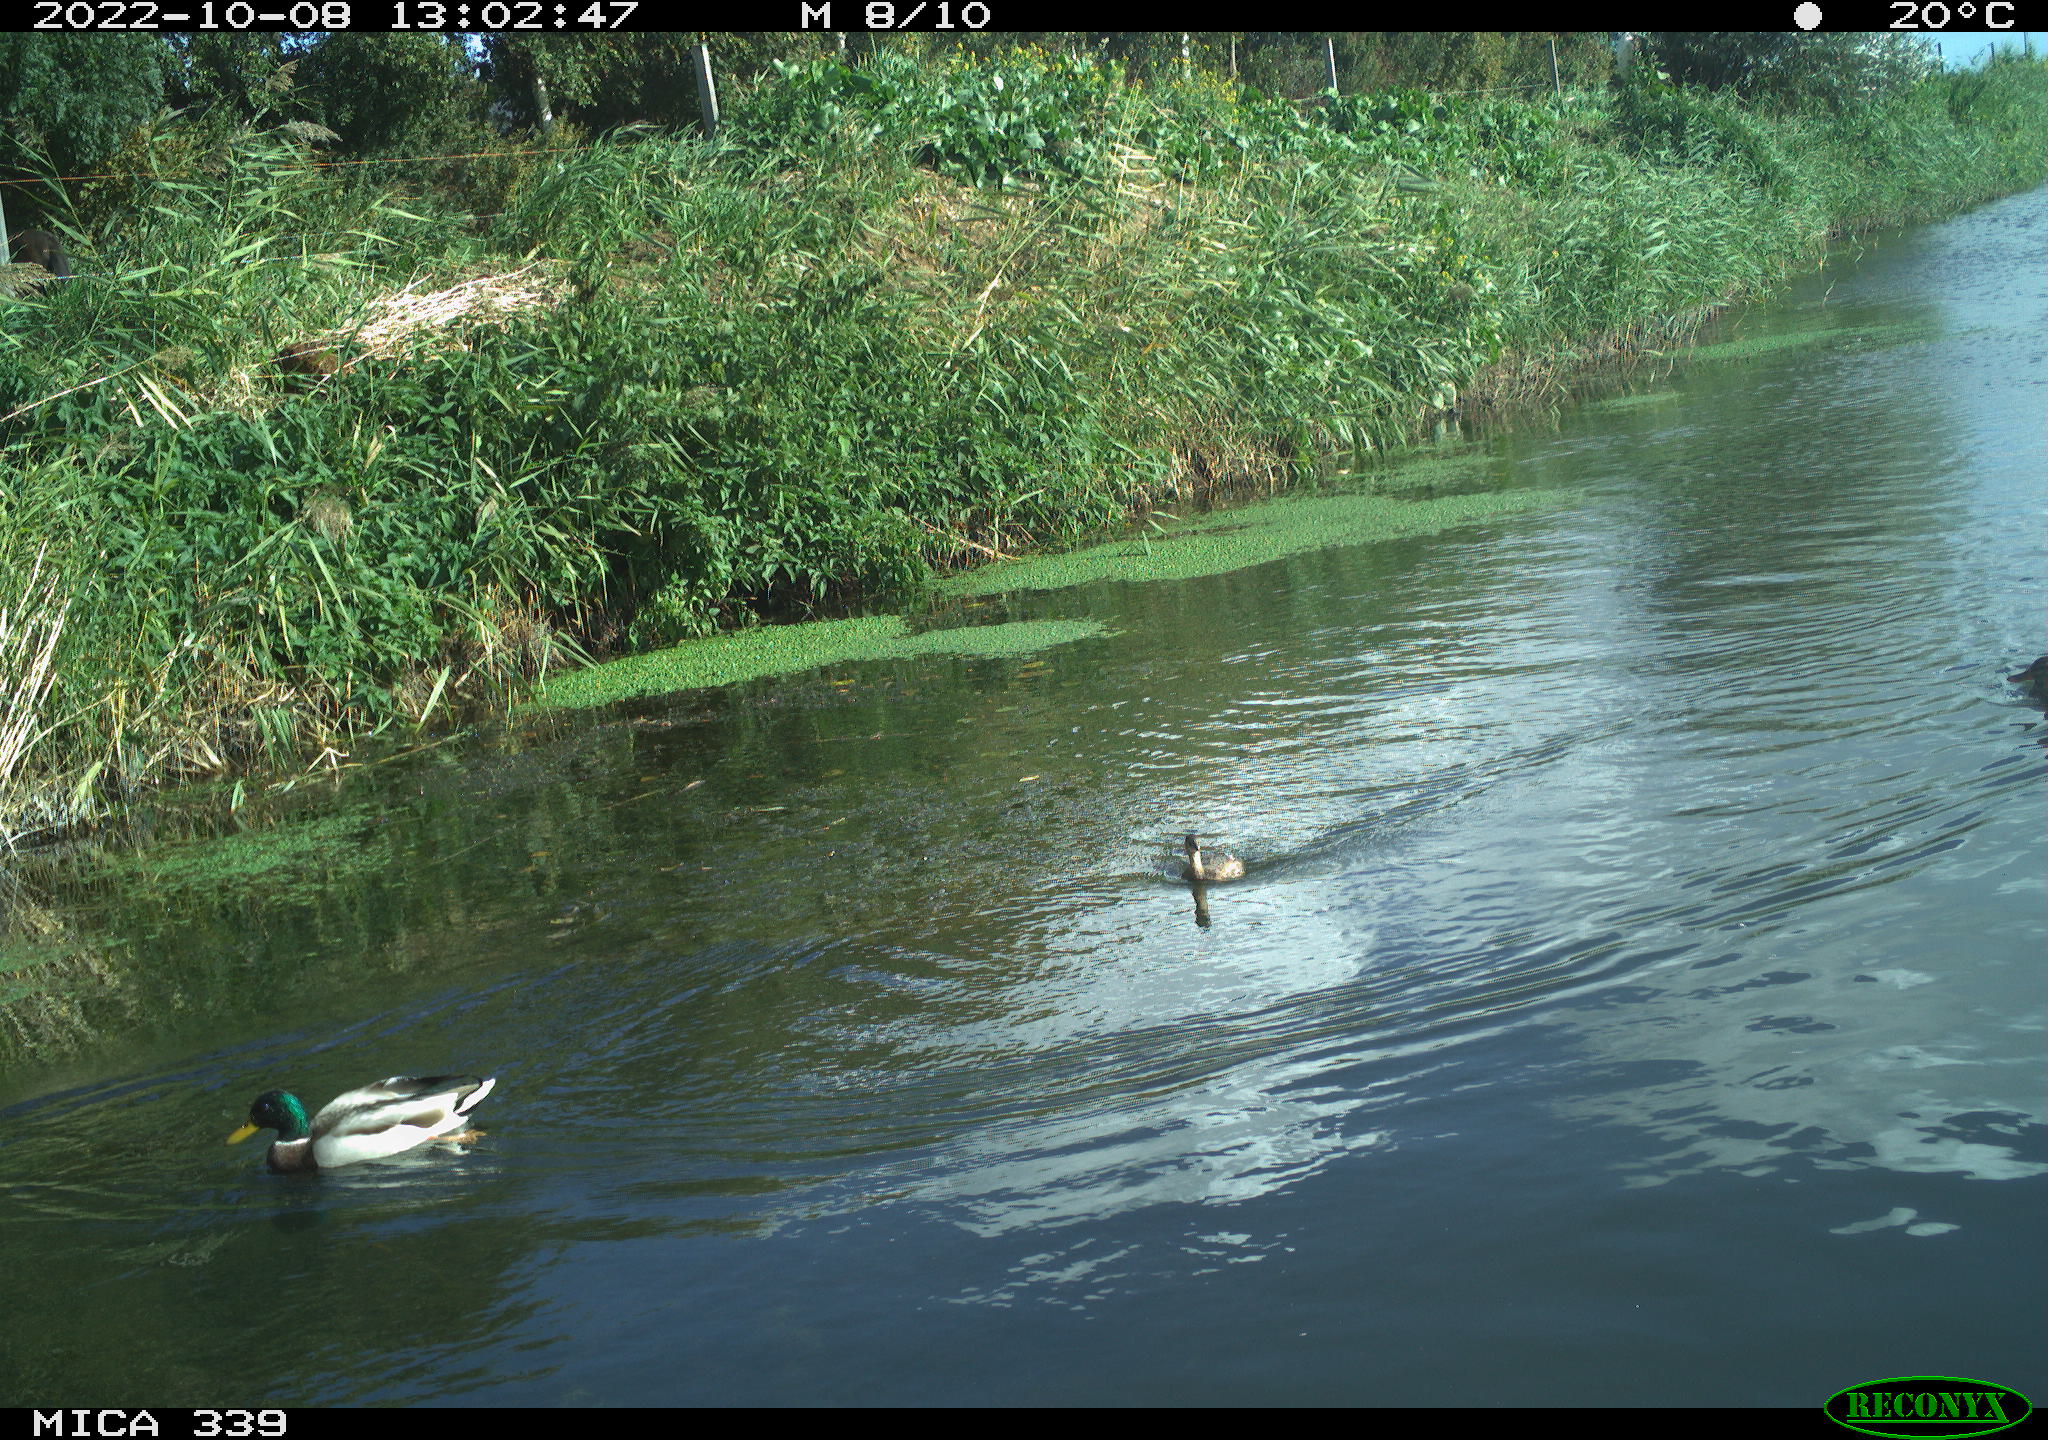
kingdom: Animalia
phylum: Chordata
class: Aves
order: Podicipediformes
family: Podicipedidae
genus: Tachybaptus
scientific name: Tachybaptus ruficollis
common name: Little grebe
